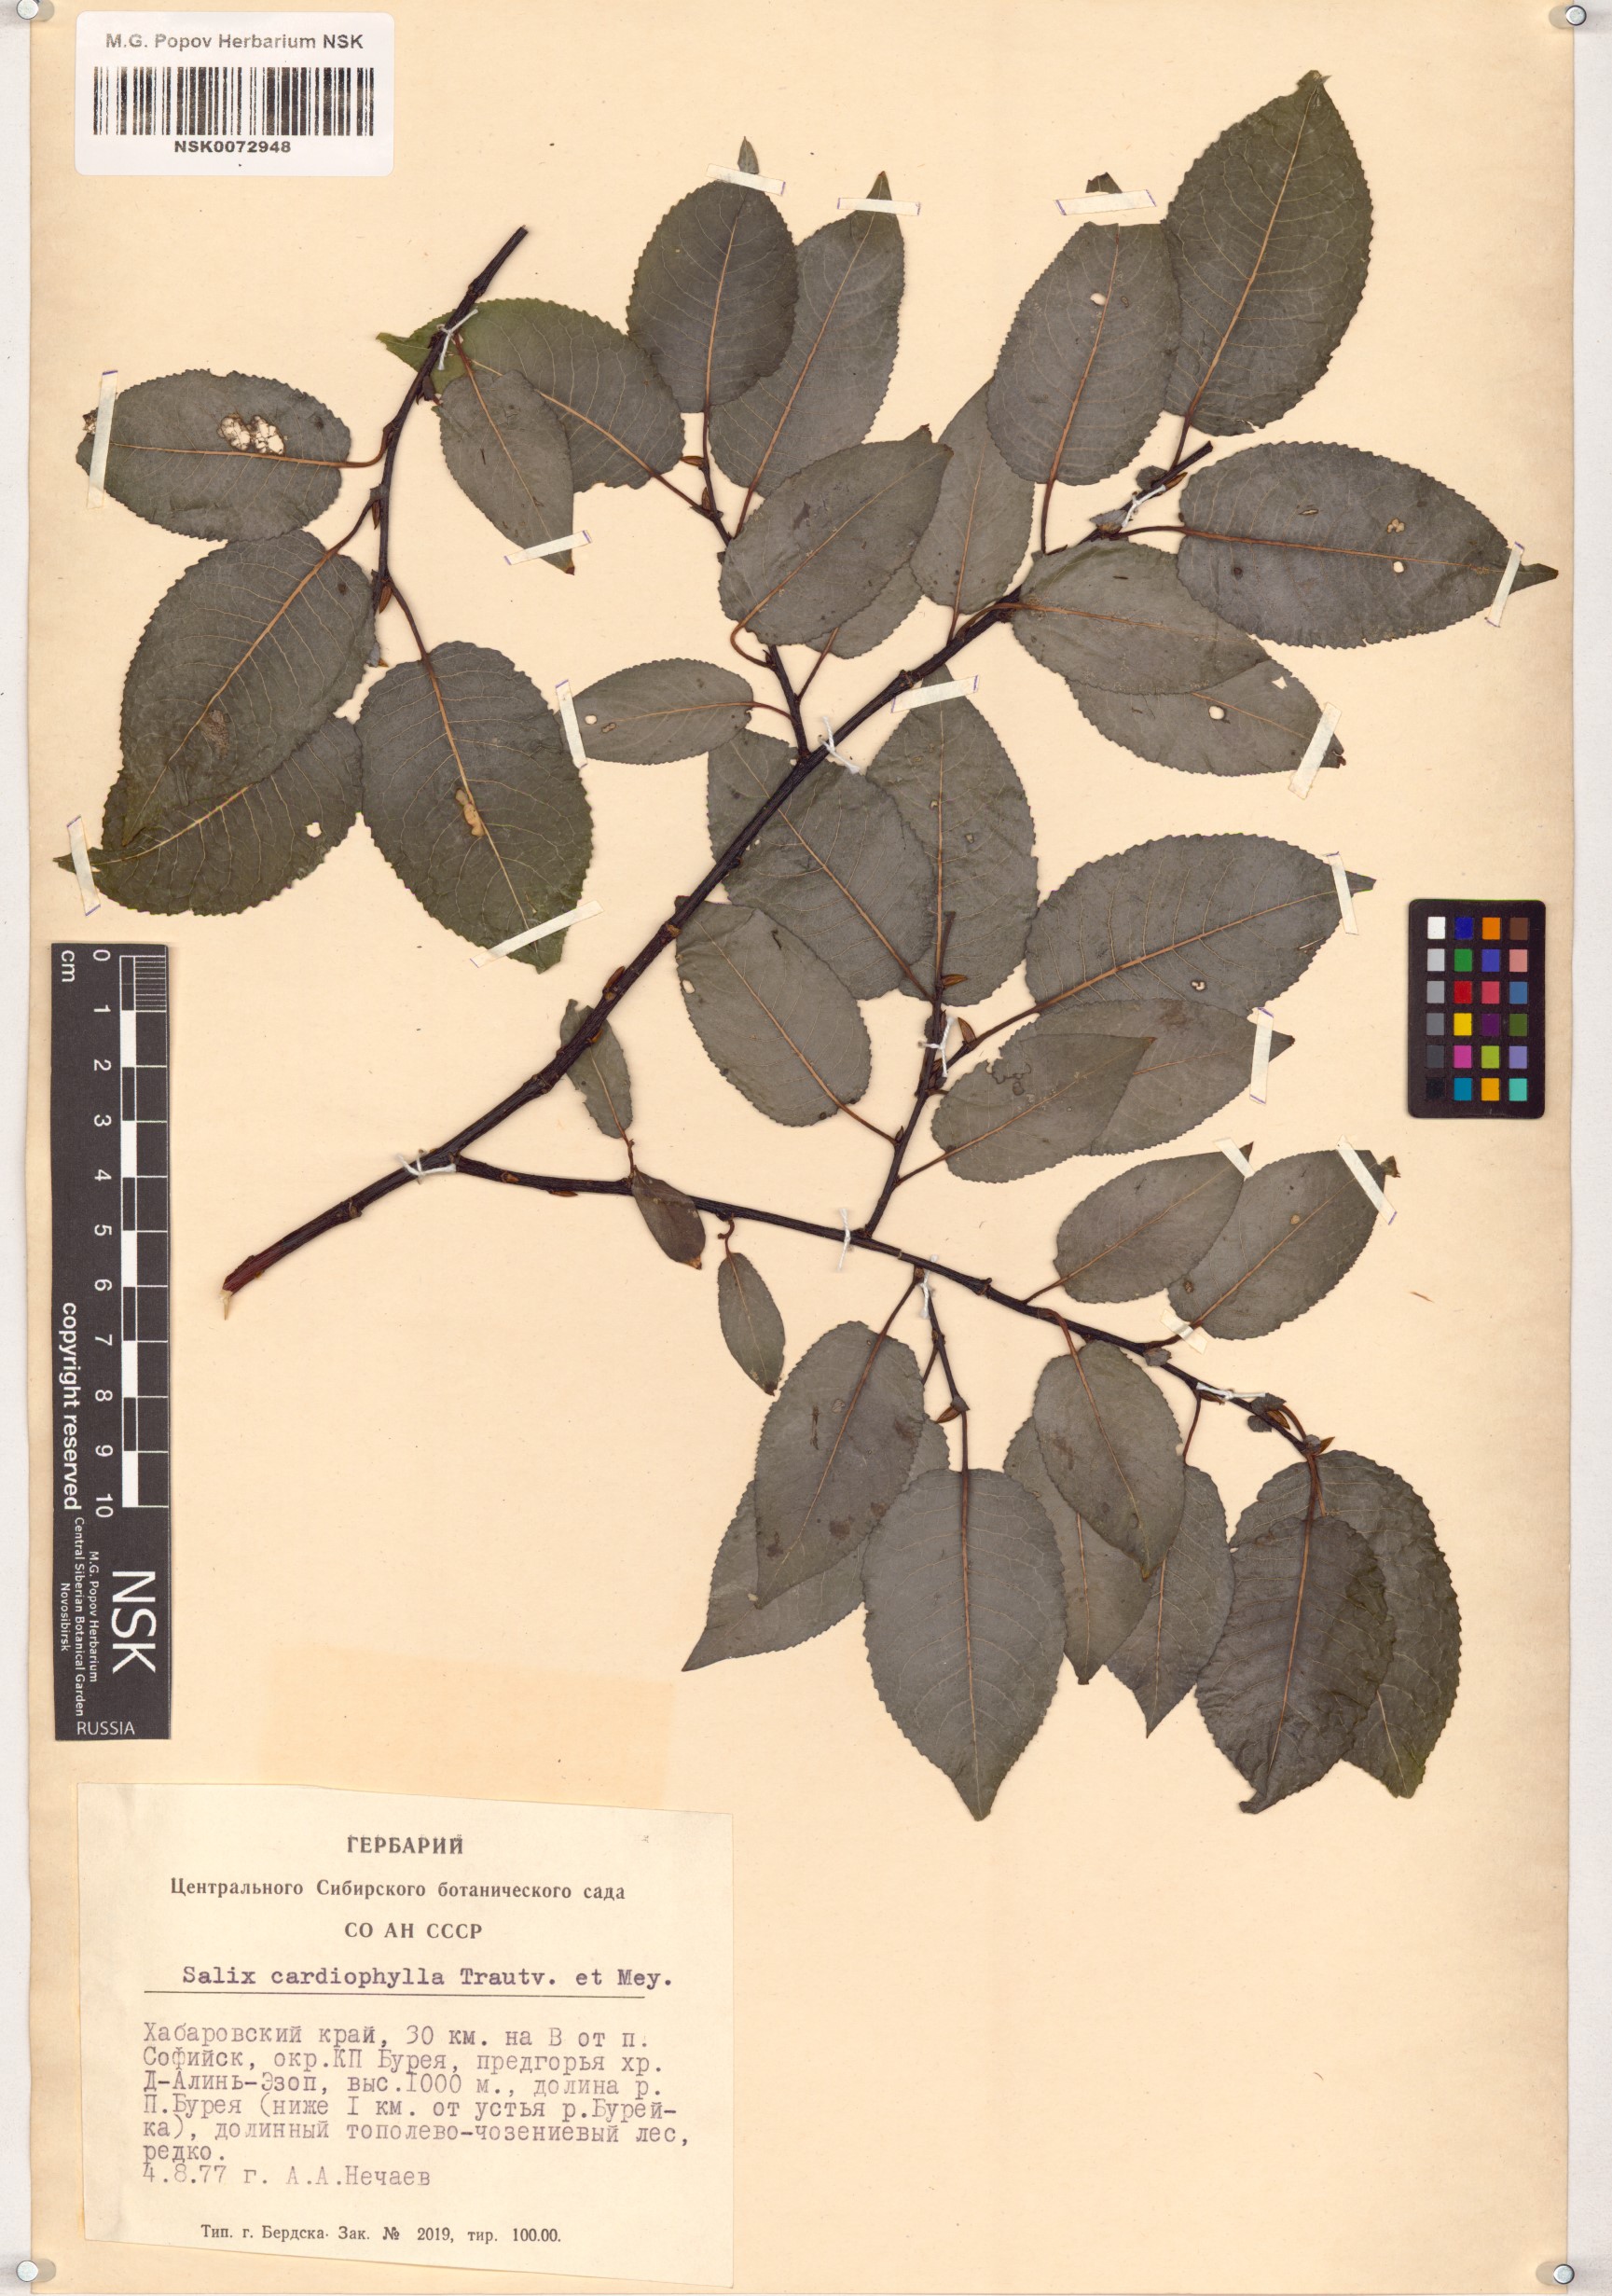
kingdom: Plantae
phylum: Tracheophyta
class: Magnoliopsida
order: Malpighiales
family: Salicaceae
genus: Chosenia
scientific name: Chosenia cardiophylla
